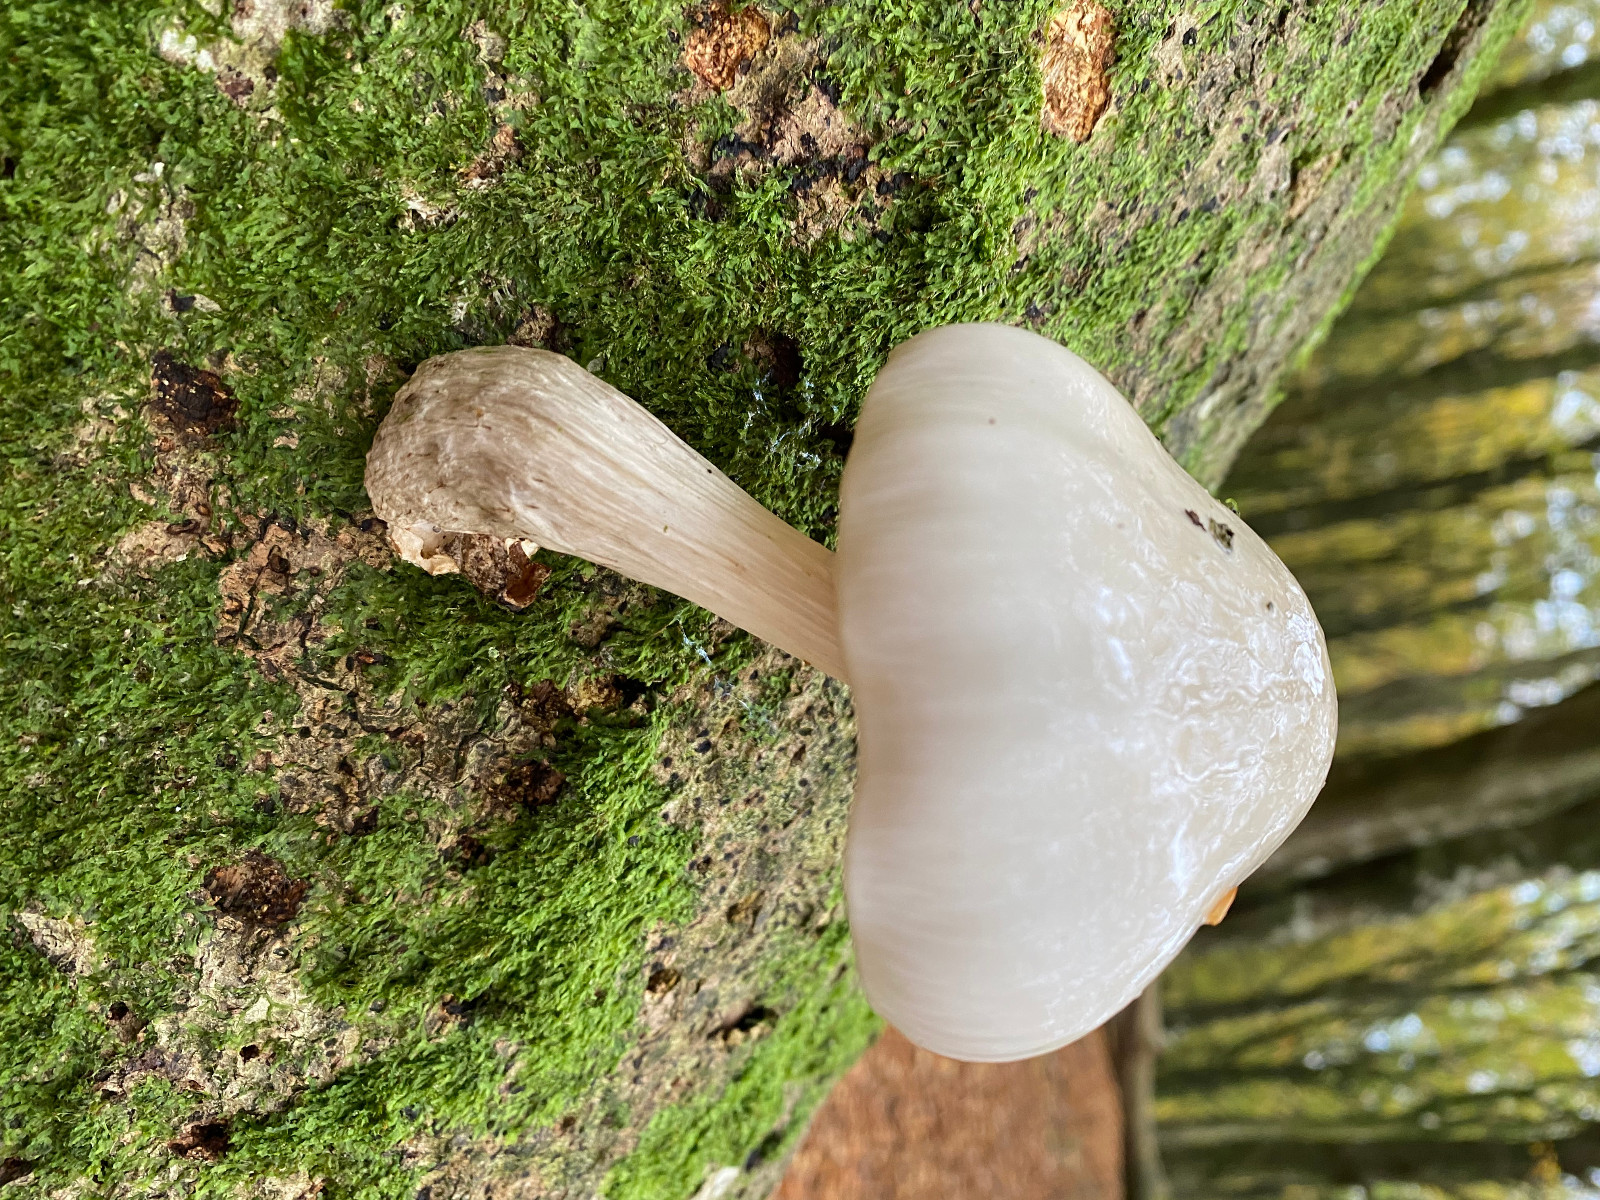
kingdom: Fungi
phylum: Basidiomycota
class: Agaricomycetes
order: Agaricales
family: Physalacriaceae
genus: Mucidula
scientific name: Mucidula mucida
